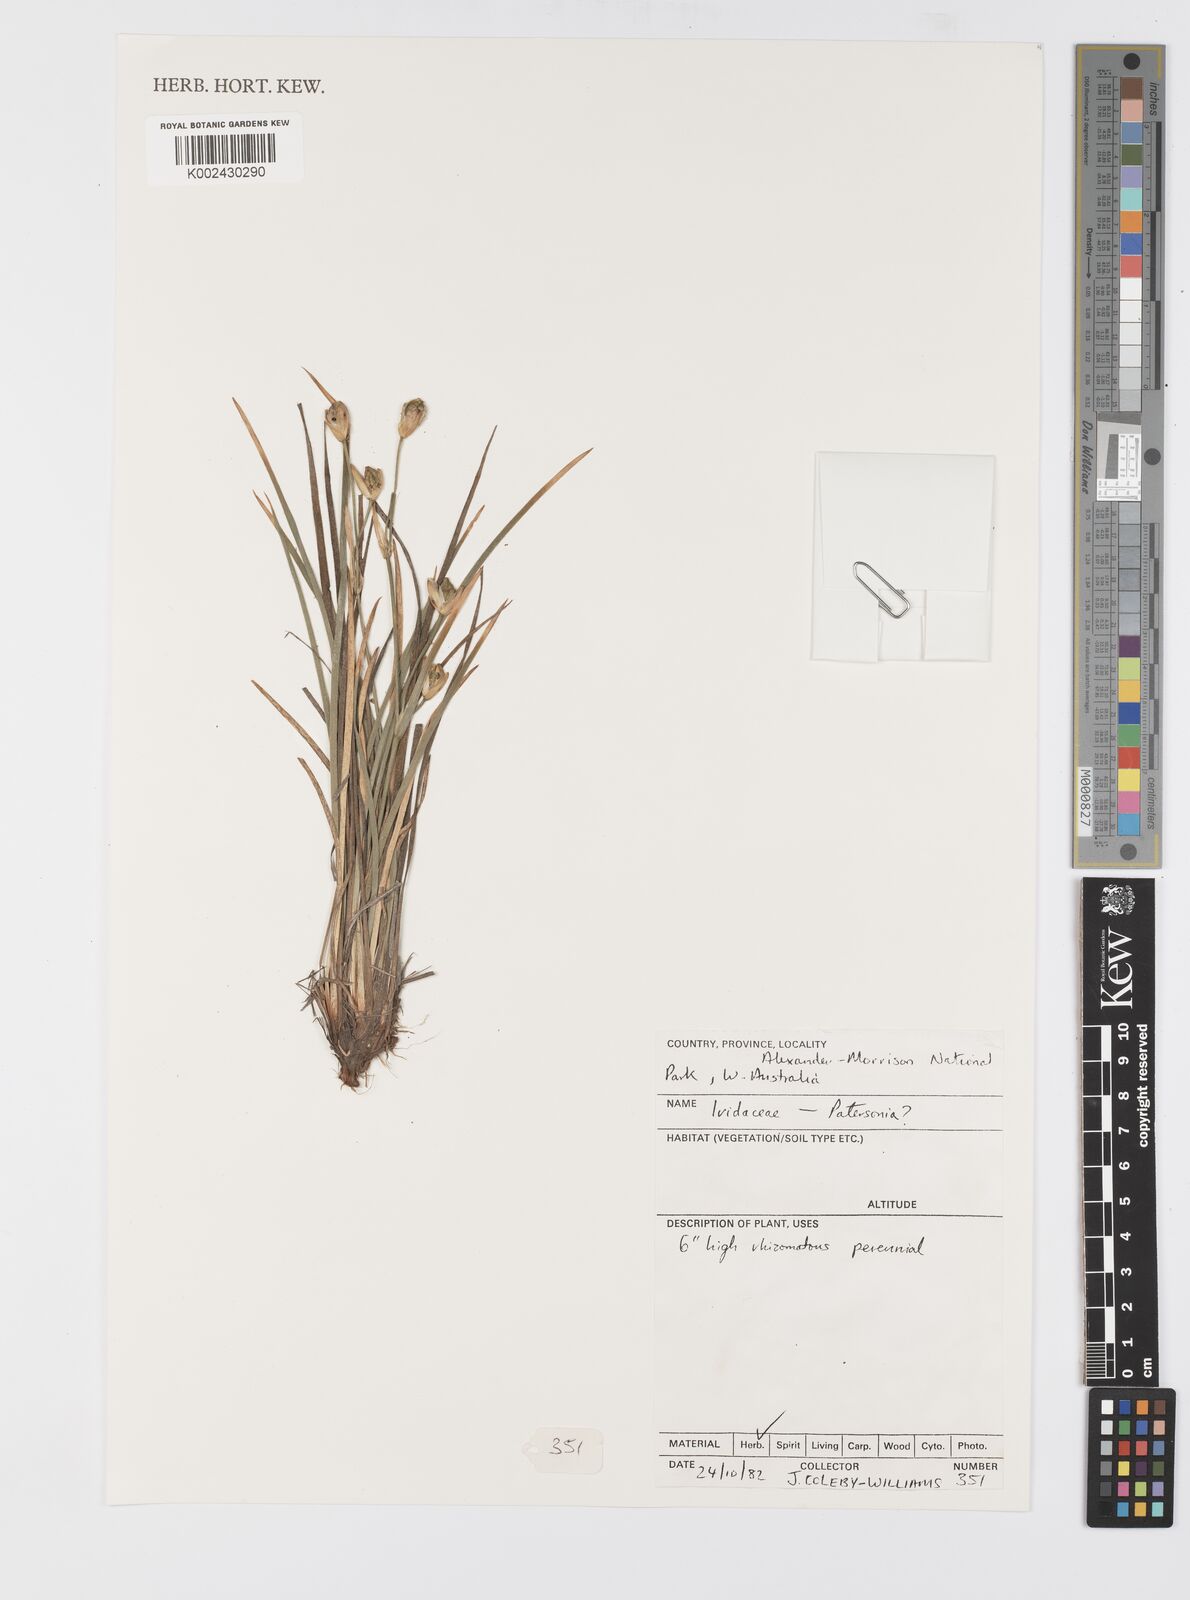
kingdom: Plantae
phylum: Tracheophyta
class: Liliopsida
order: Asparagales
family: Iridaceae
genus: Patersonia
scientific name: Patersonia
